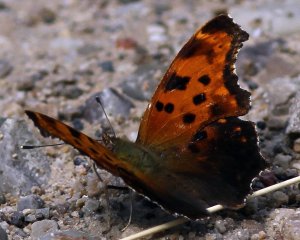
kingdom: Animalia
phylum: Arthropoda
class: Insecta
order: Lepidoptera
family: Nymphalidae
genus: Polygonia
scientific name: Polygonia comma
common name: Eastern Comma
